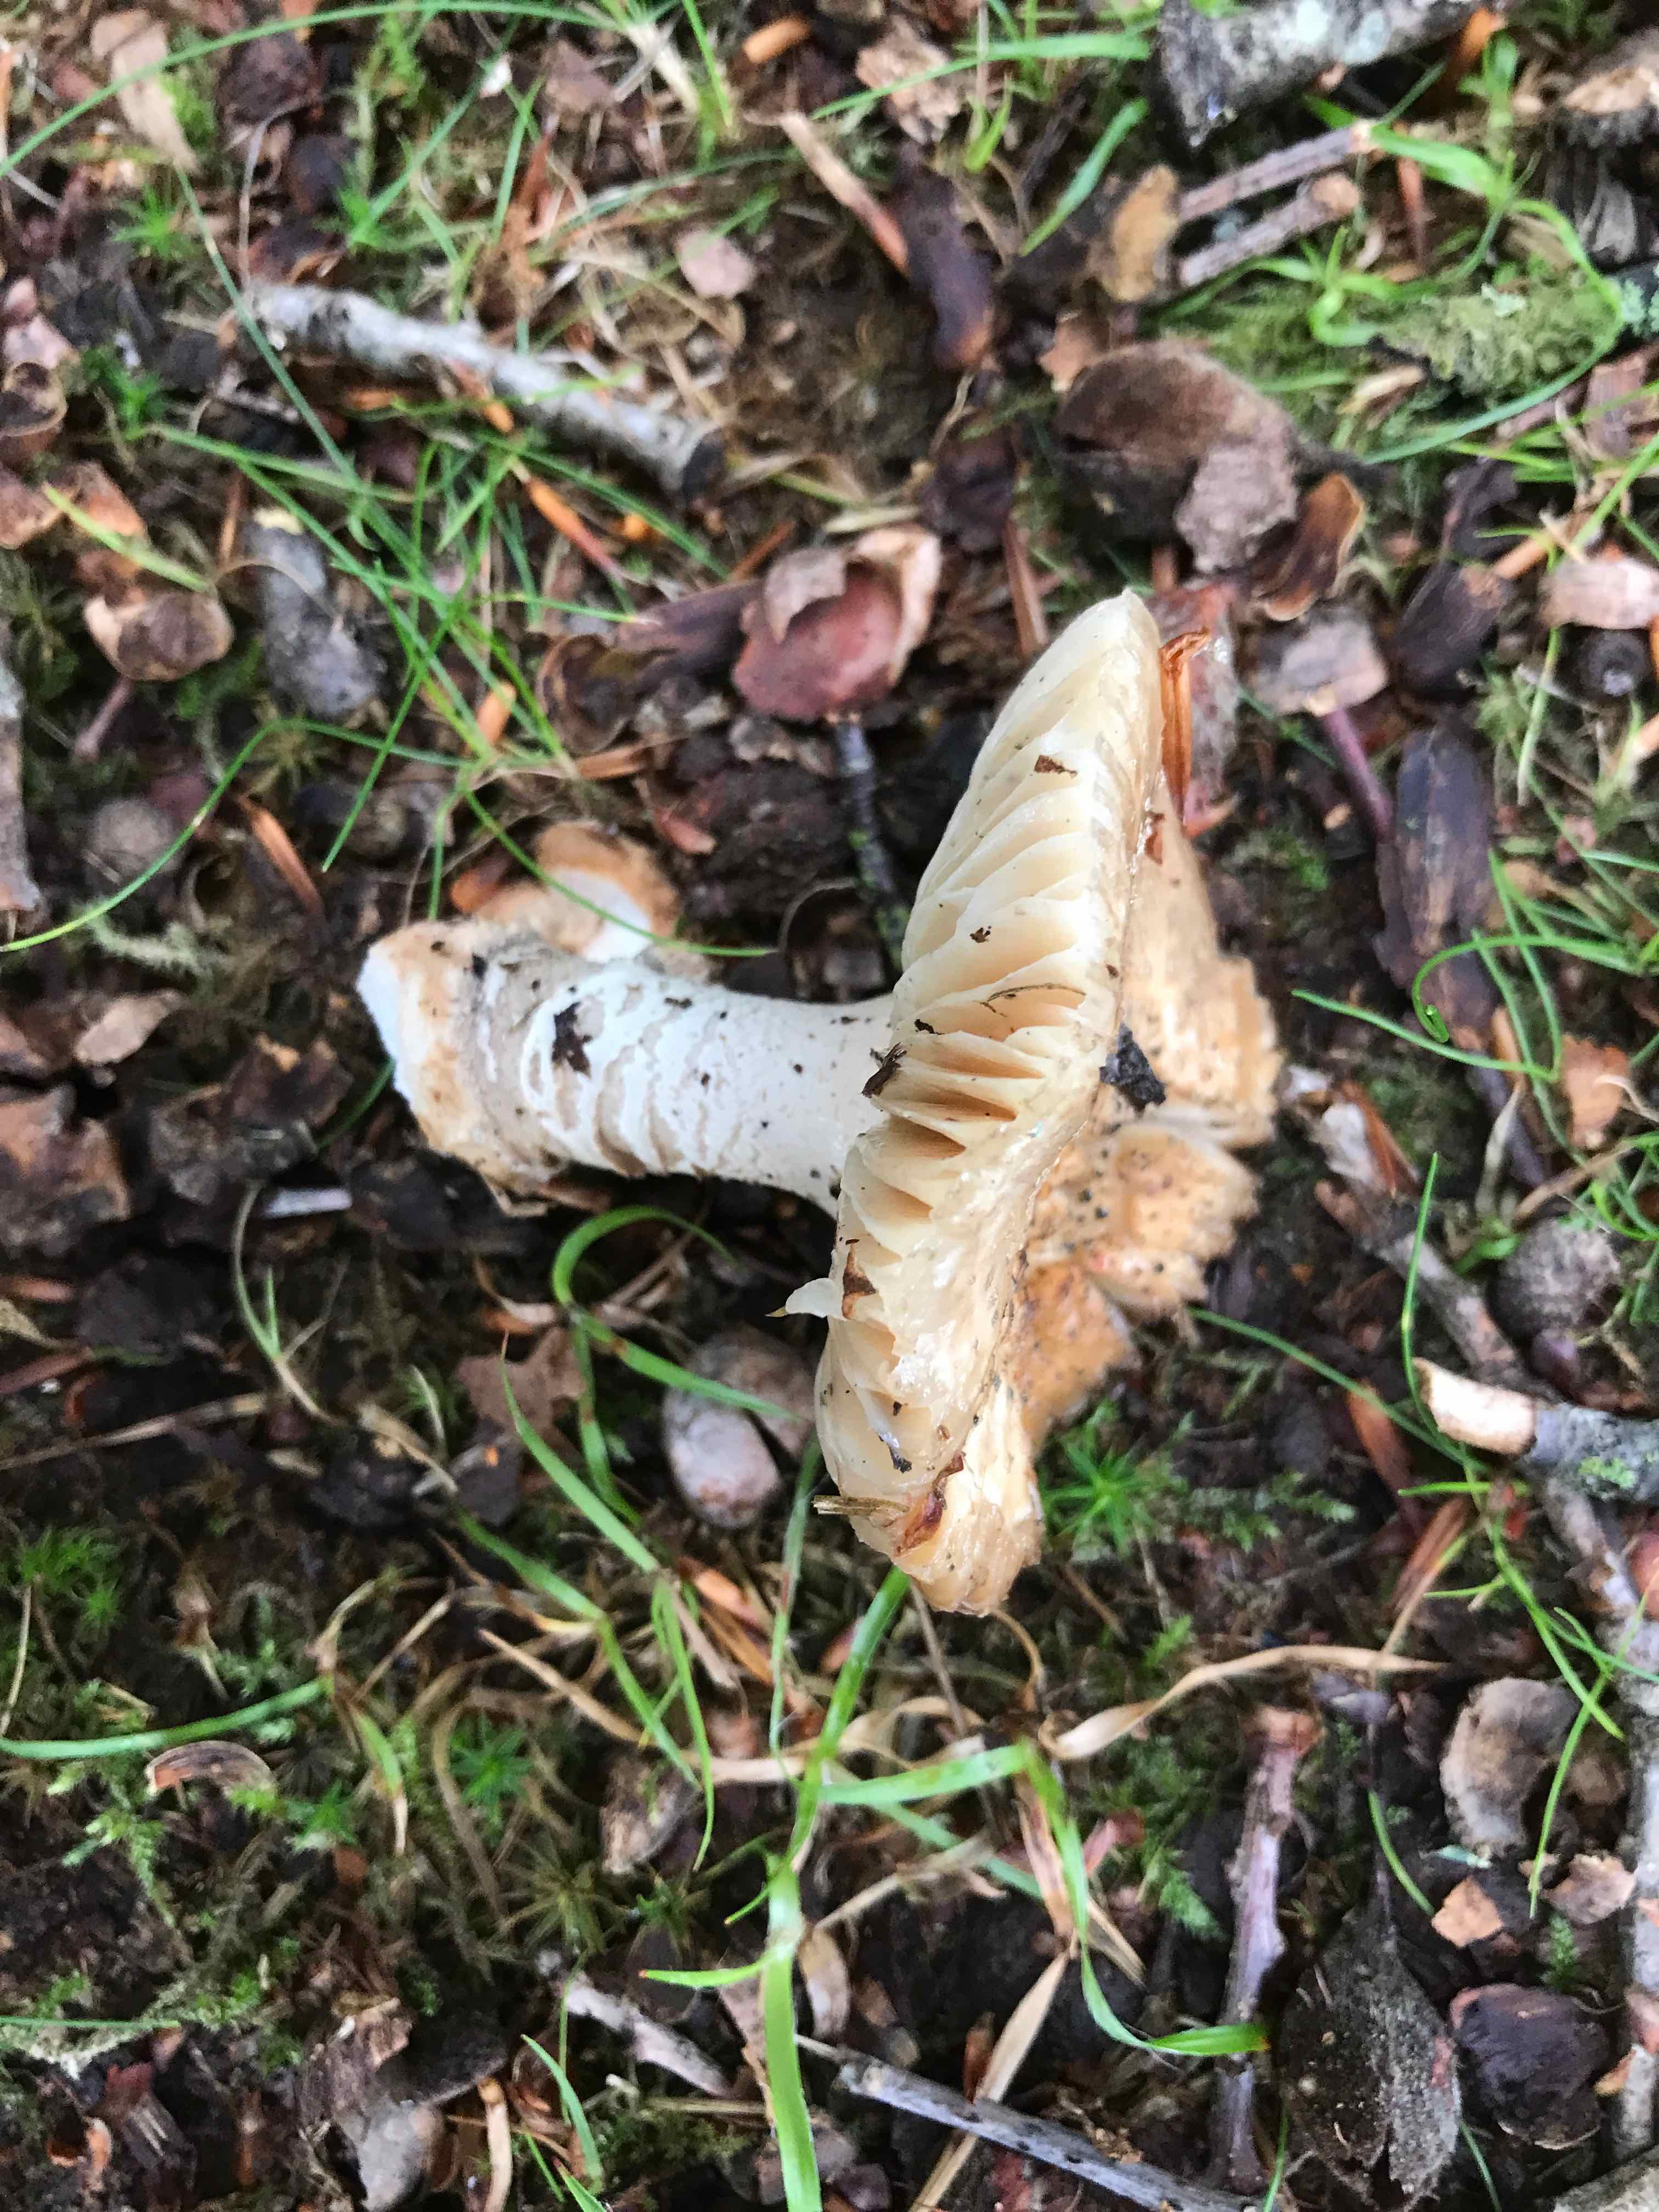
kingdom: Fungi
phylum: Basidiomycota
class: Agaricomycetes
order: Agaricales
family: Amanitaceae
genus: Amanita
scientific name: Amanita rubescens
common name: rødmende fluesvamp
